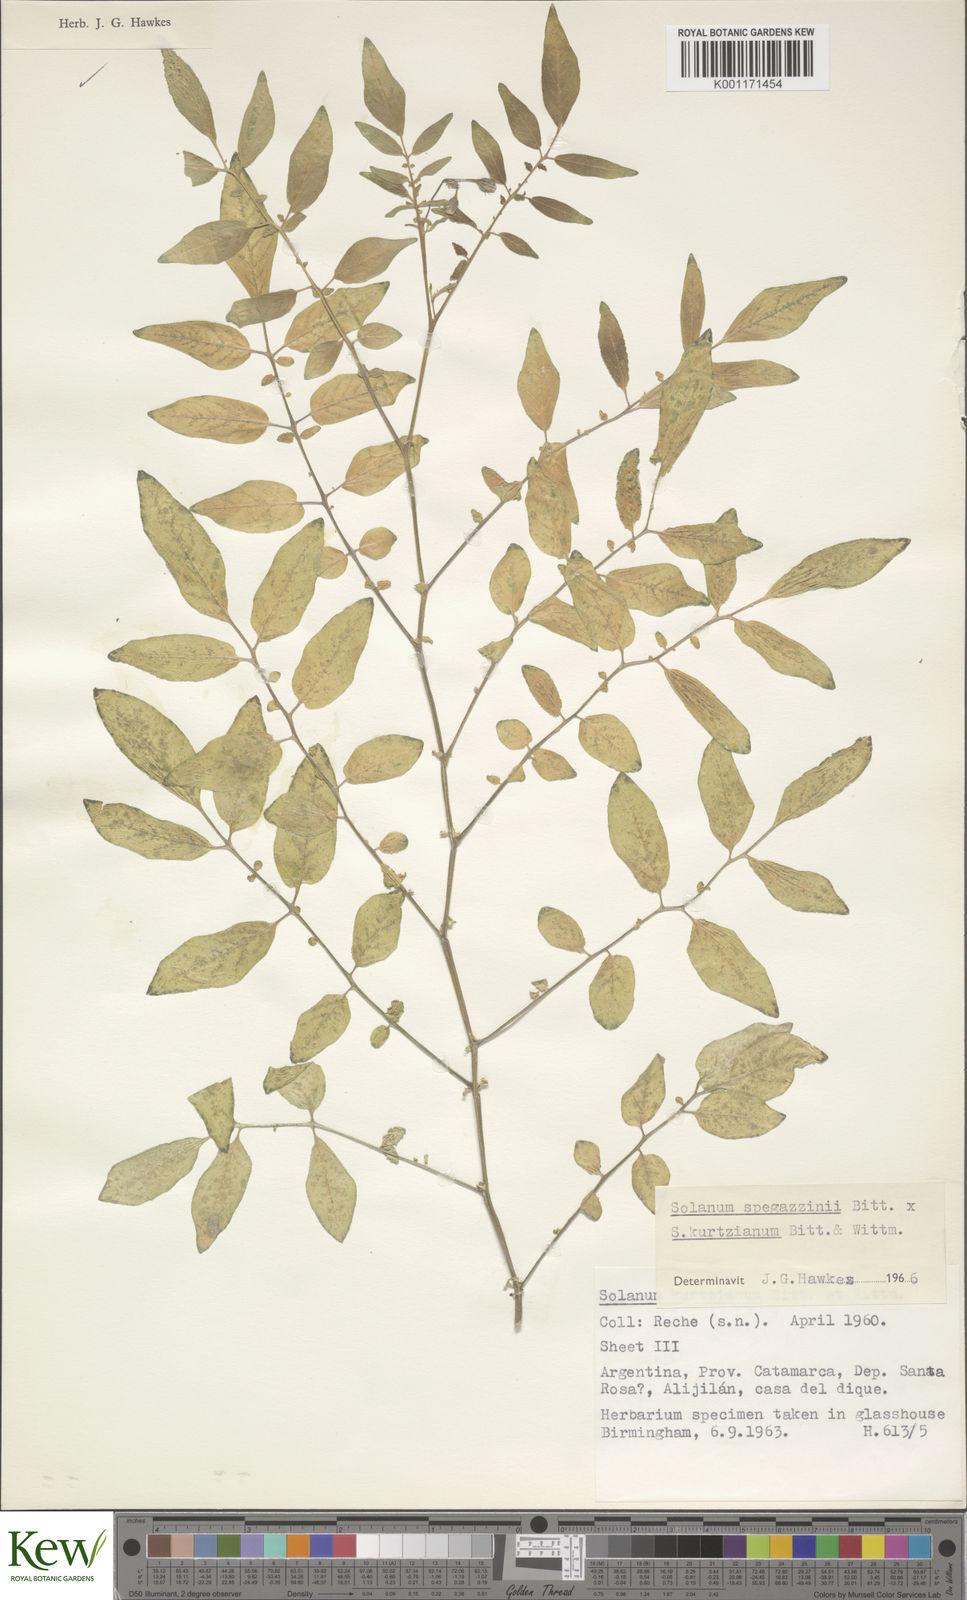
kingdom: Plantae
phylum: Tracheophyta
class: Magnoliopsida
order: Solanales
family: Solanaceae
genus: Solanum
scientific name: Solanum brevicaule
